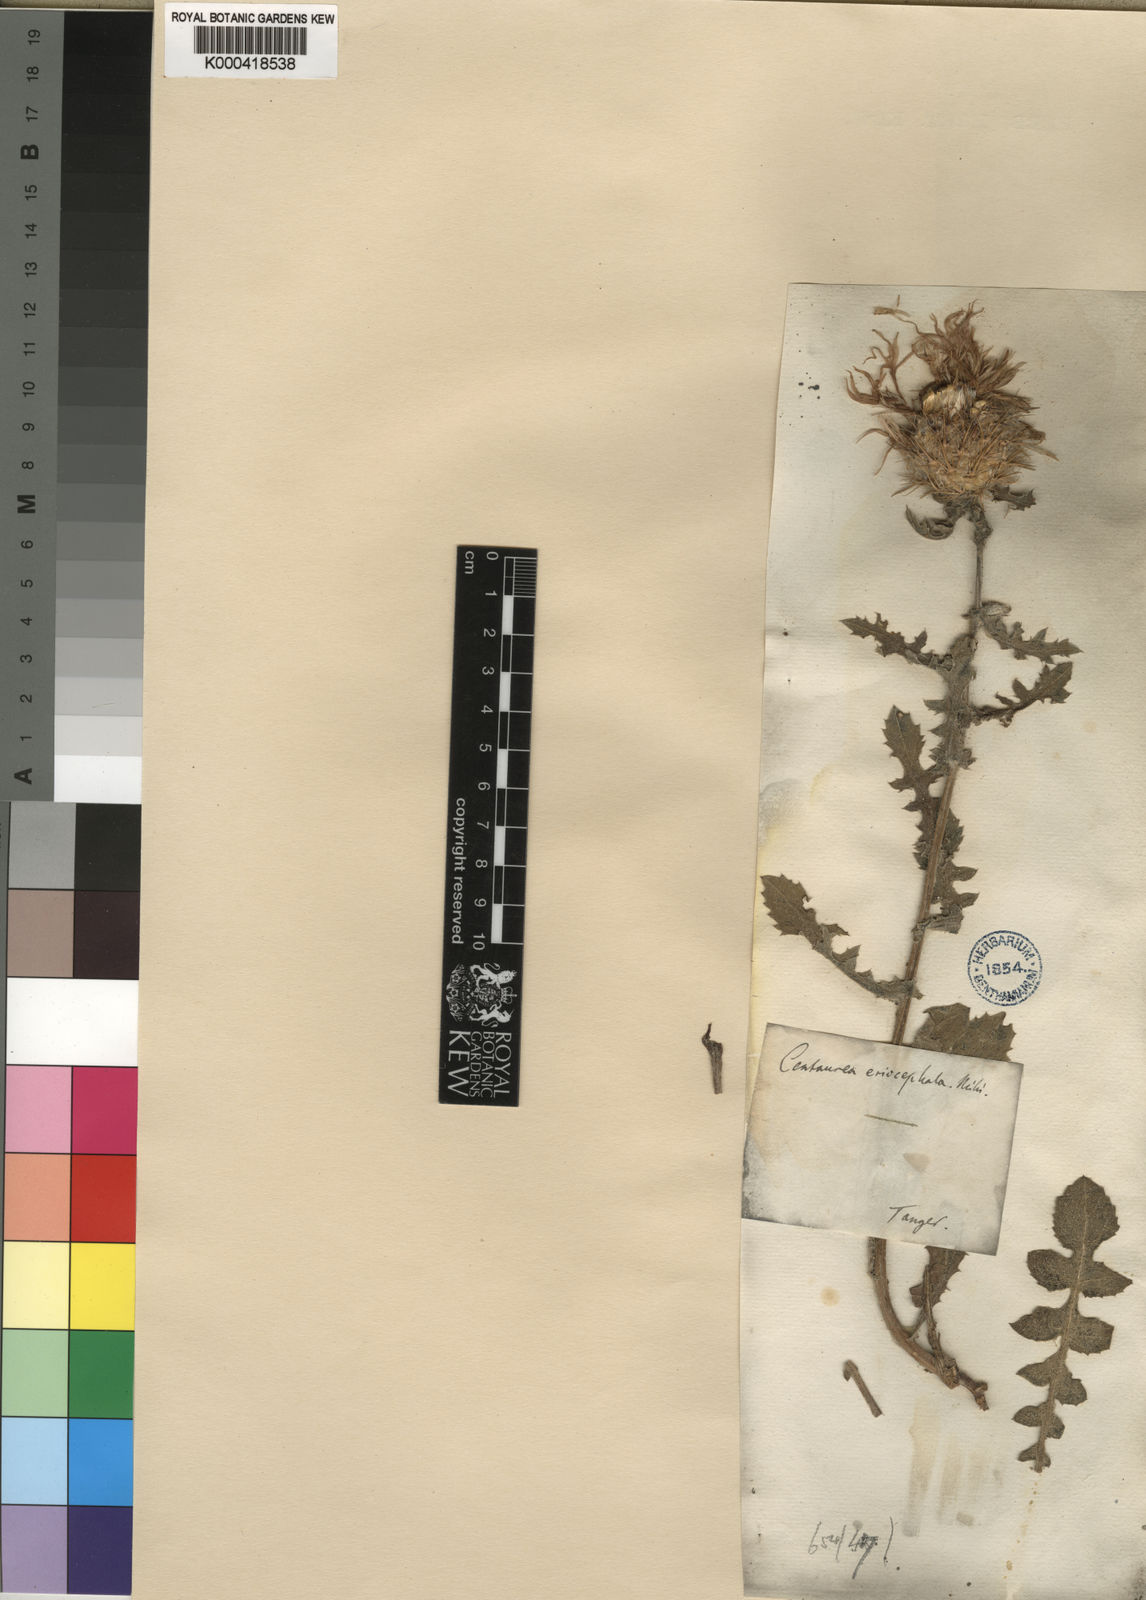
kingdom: Plantae
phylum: Tracheophyta
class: Magnoliopsida
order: Asterales
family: Asteraceae
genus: Centaurea
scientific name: Centaurea
